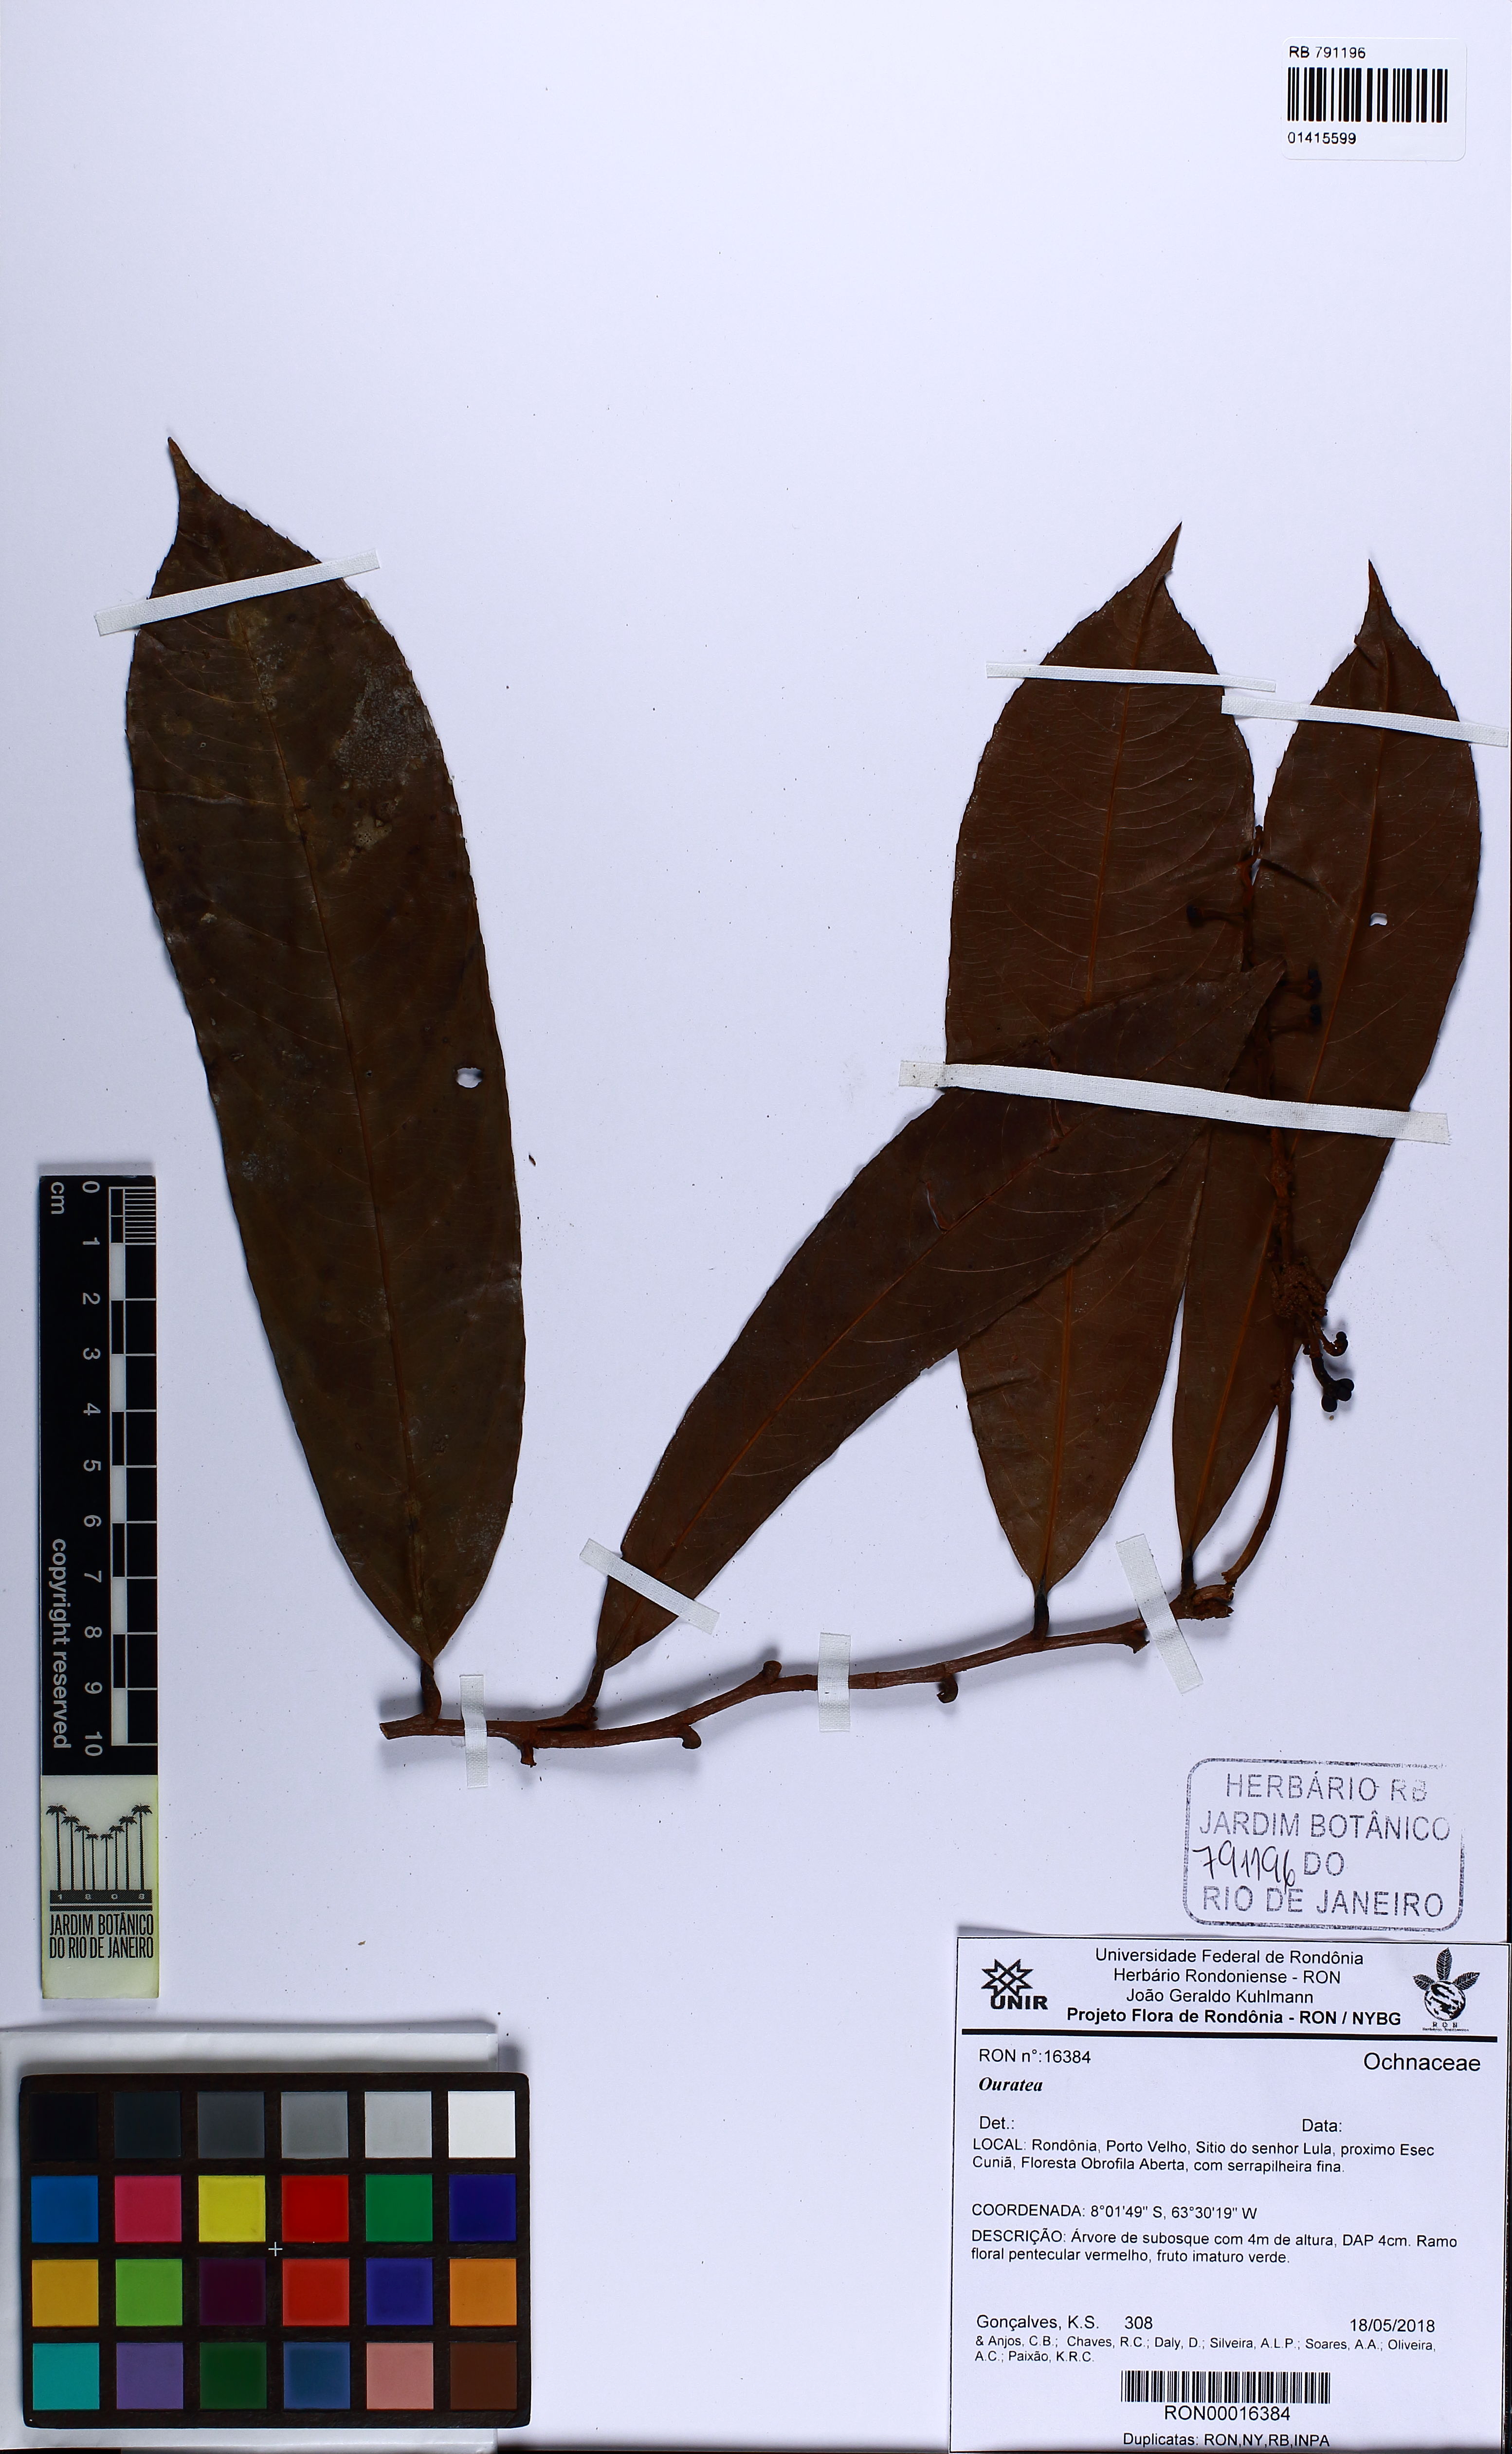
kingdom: Plantae
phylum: Tracheophyta
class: Magnoliopsida
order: Malpighiales
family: Ochnaceae
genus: Ouratea
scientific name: Ouratea
